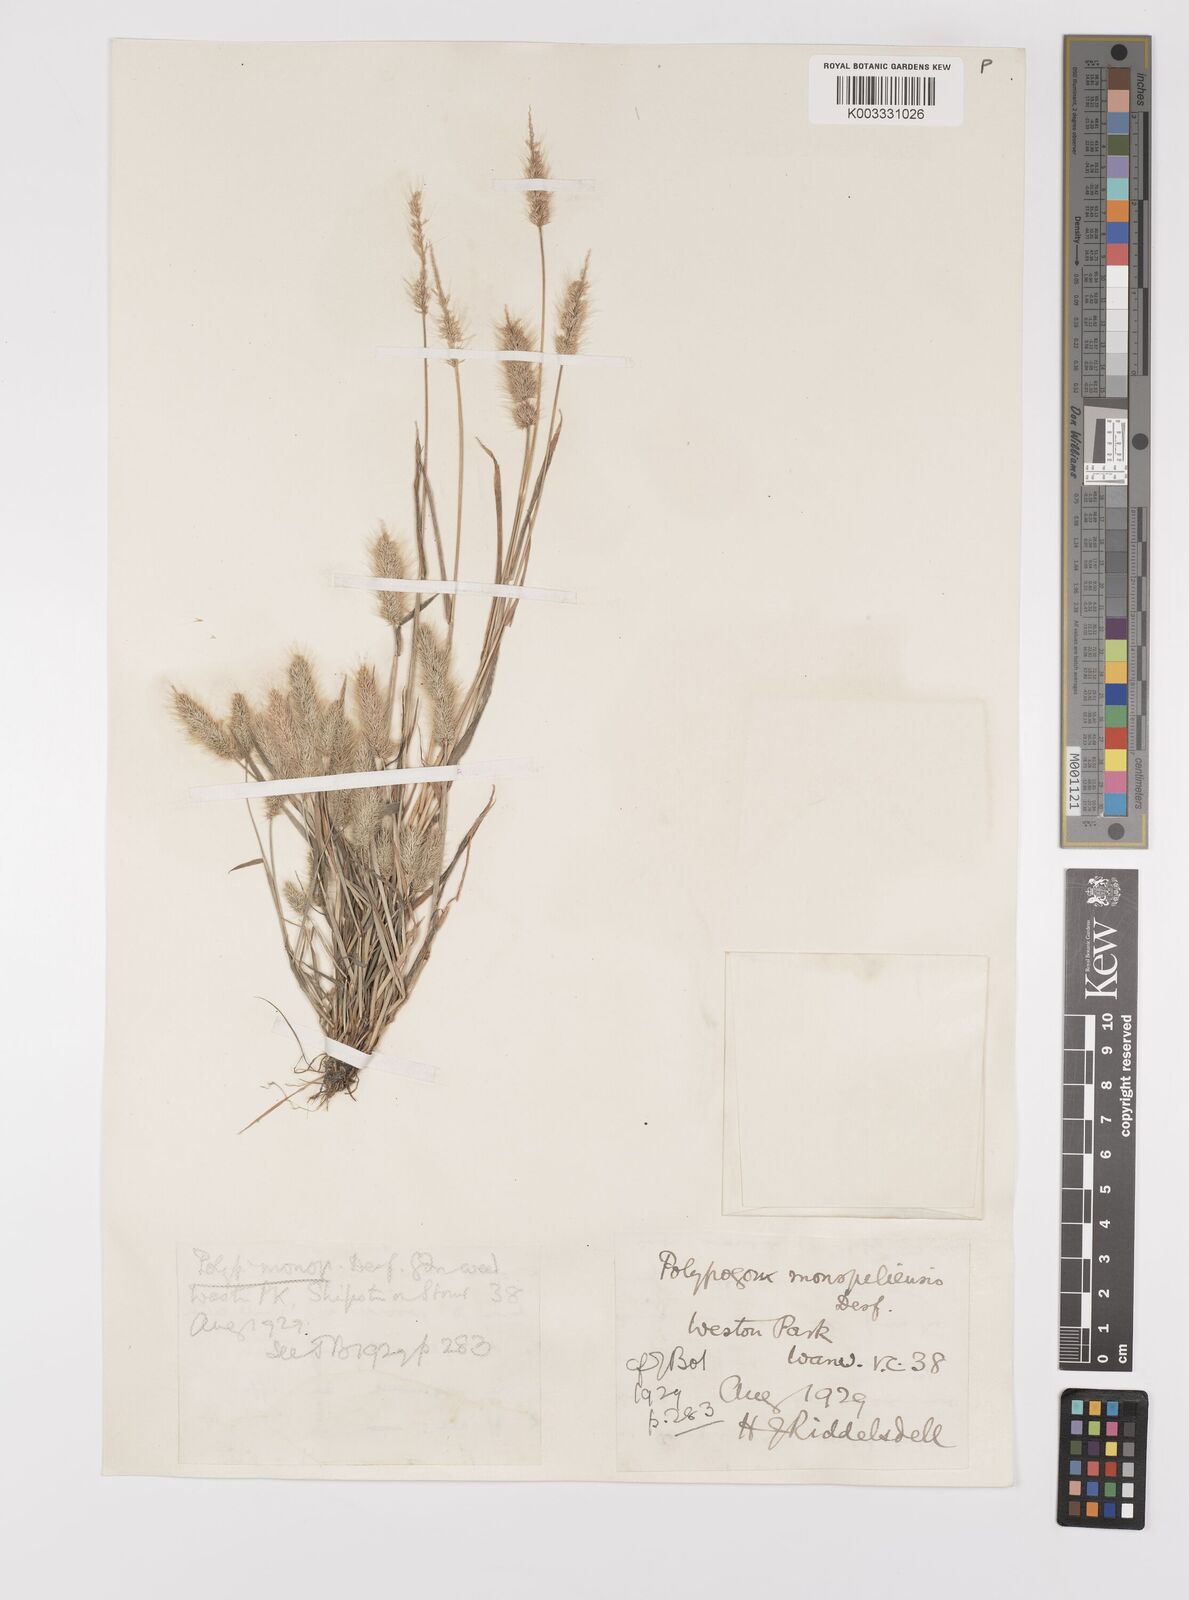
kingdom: Plantae
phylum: Tracheophyta
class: Liliopsida
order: Poales
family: Poaceae
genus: Polypogon
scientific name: Polypogon monspeliensis
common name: Annual rabbitsfoot grass
